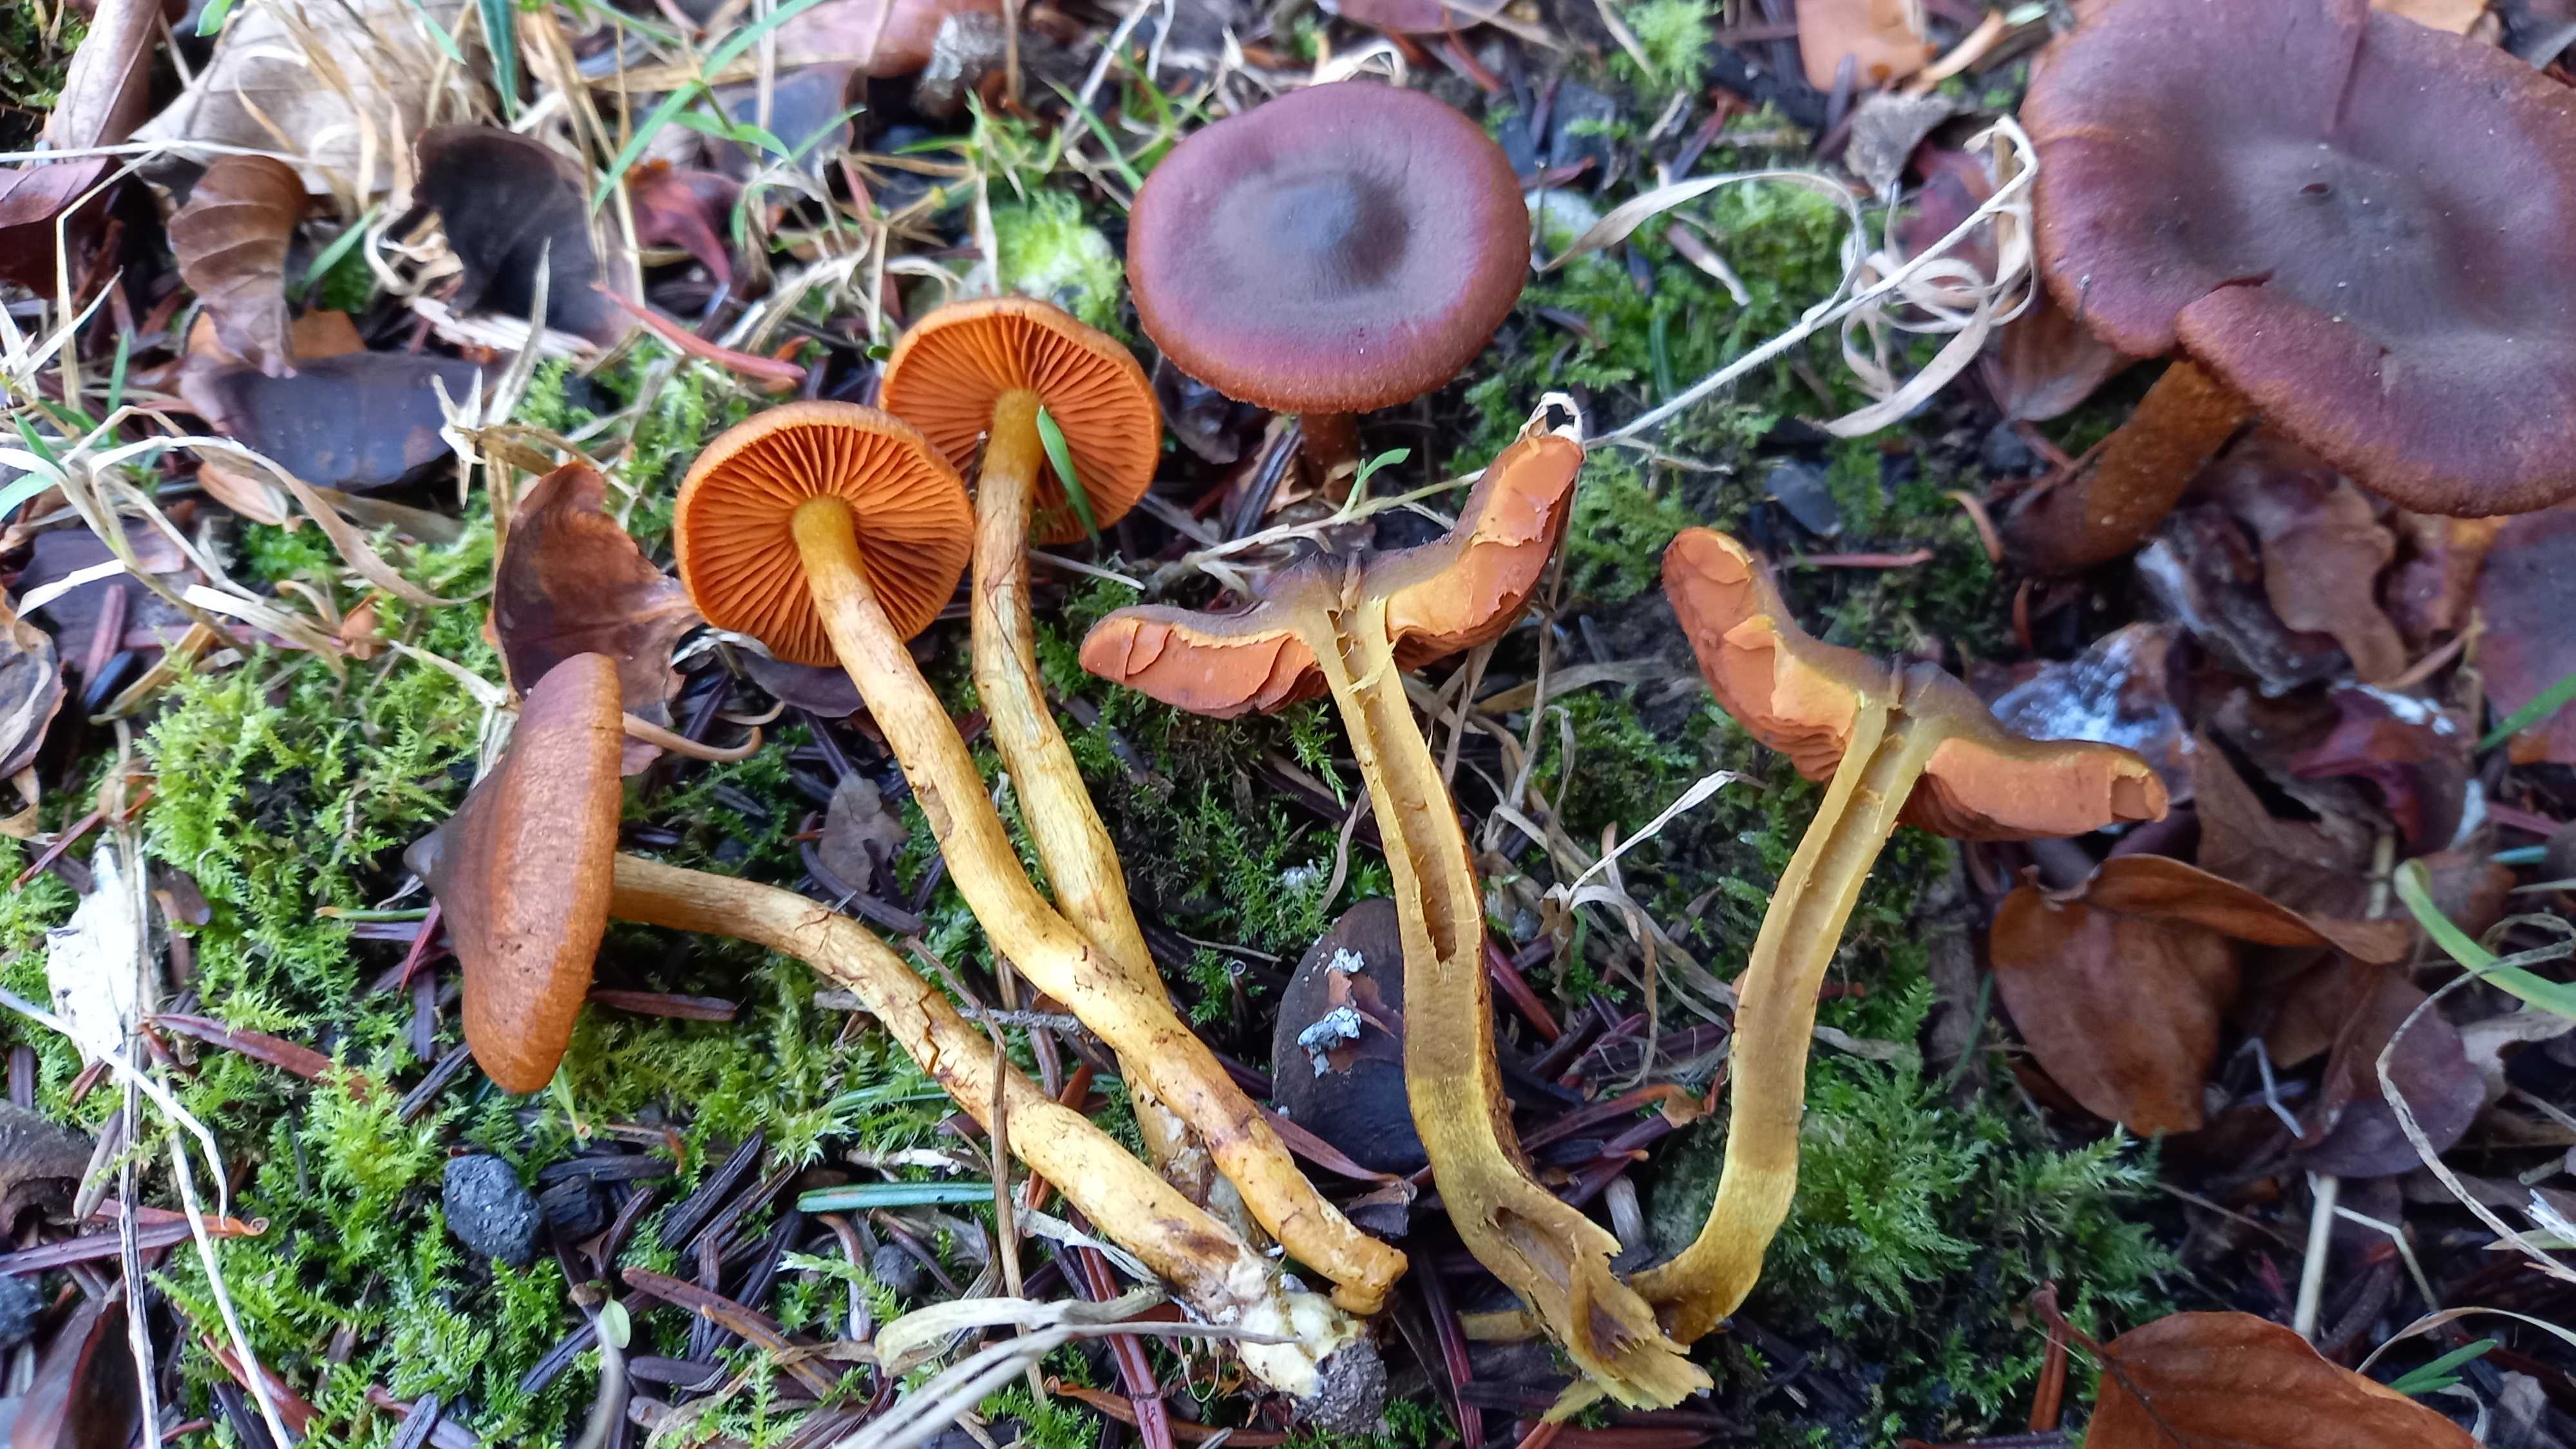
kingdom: Fungi
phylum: Basidiomycota
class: Agaricomycetes
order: Agaricales
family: Cortinariaceae
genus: Cortinarius
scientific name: Cortinarius malicorius
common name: grønkødet slørhat
